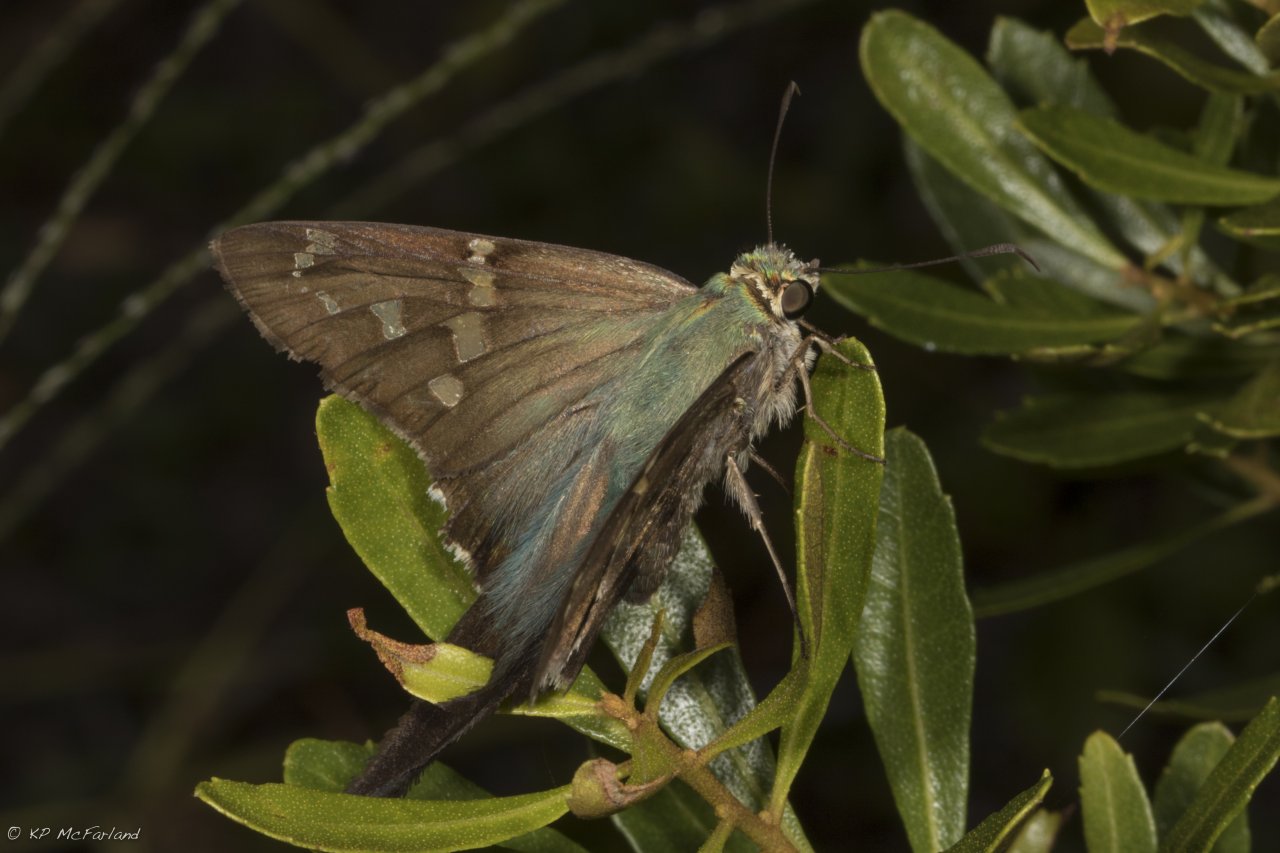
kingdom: Animalia
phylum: Arthropoda
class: Insecta
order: Lepidoptera
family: Hesperiidae
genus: Urbanus
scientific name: Urbanus proteus
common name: Long-tailed Skipper
